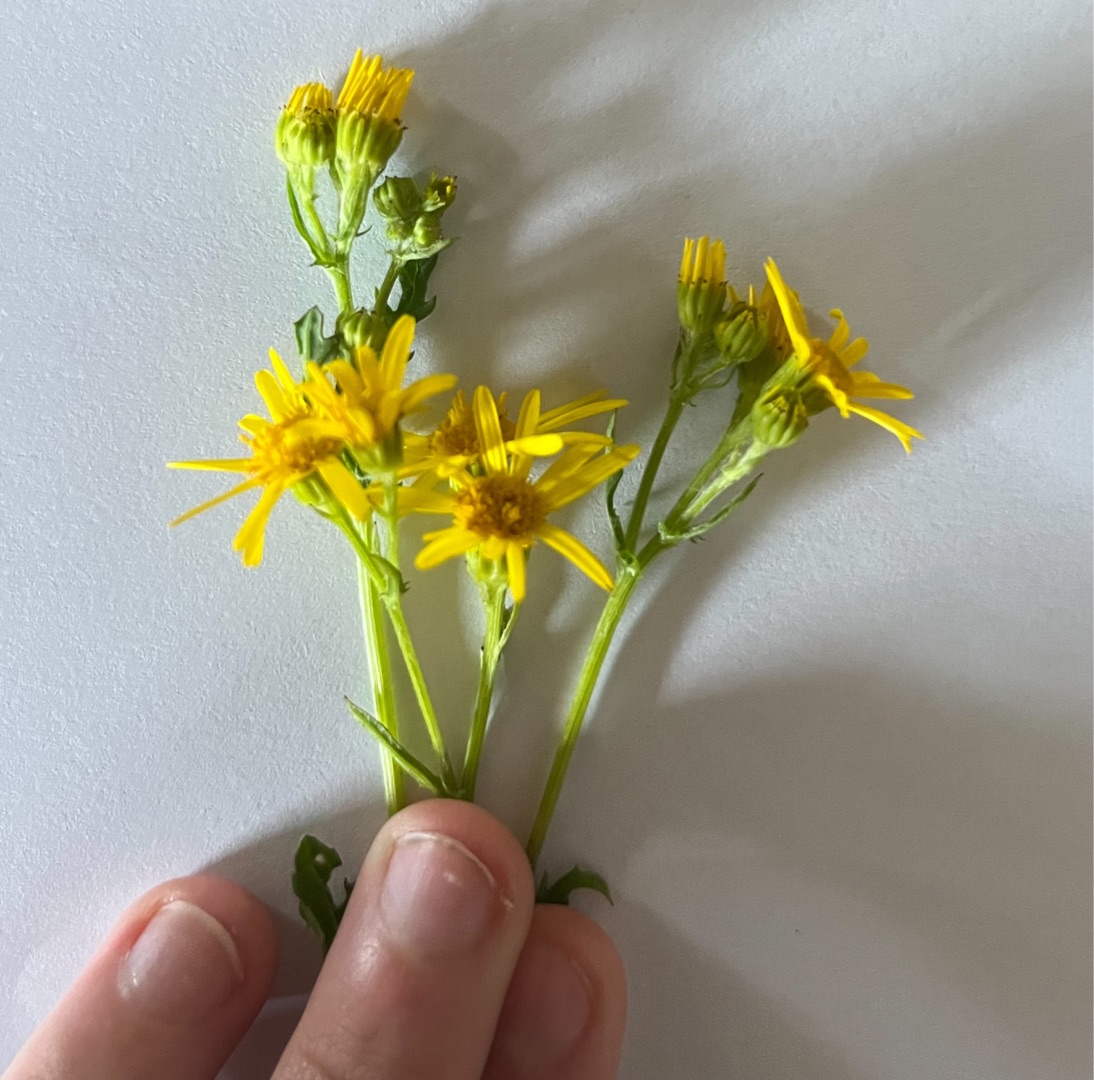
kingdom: Plantae
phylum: Tracheophyta
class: Magnoliopsida
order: Asterales
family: Asteraceae
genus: Jacobaea
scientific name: Jacobaea vulgaris
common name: Eng-brandbæger
